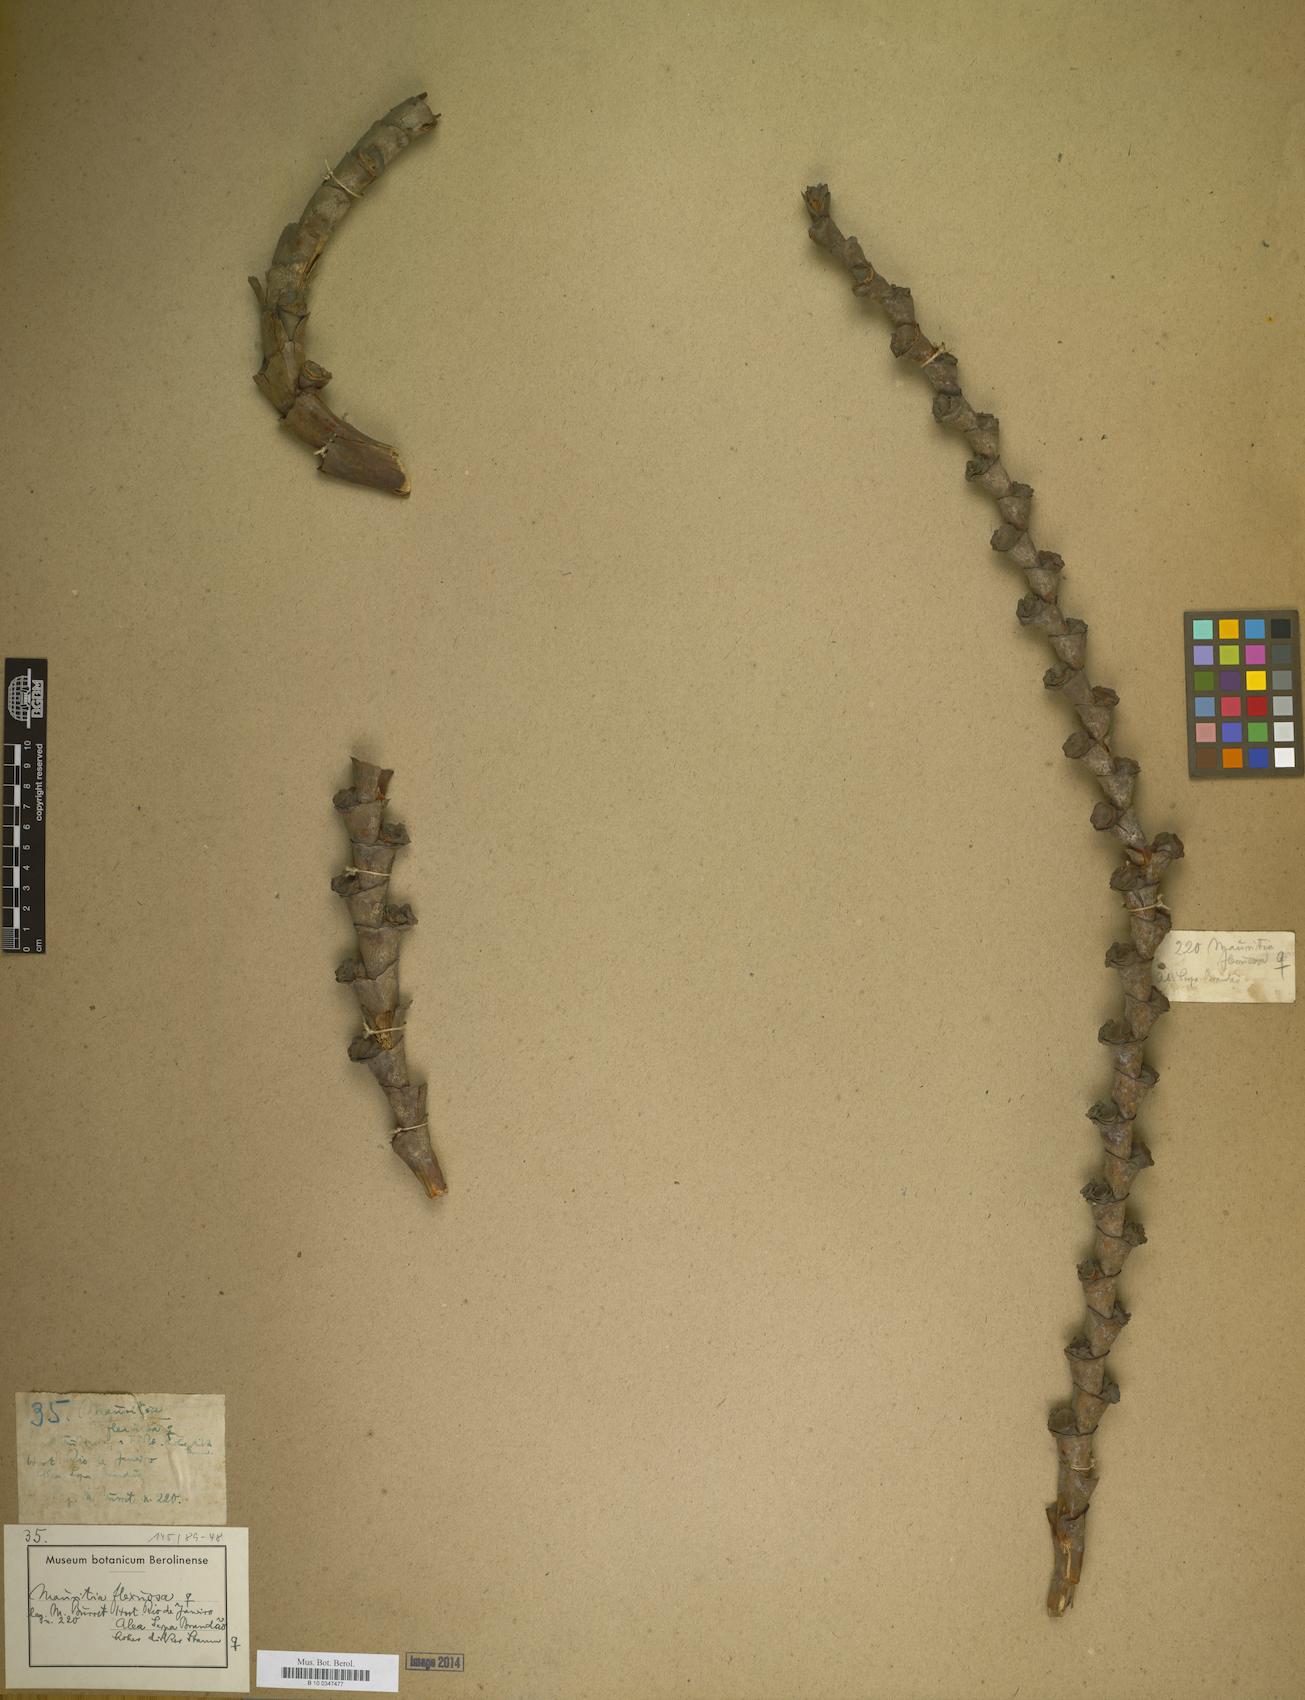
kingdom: Plantae
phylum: Tracheophyta
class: Liliopsida
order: Arecales
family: Arecaceae
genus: Mauritia
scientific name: Mauritia flexuosa
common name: Tree-of-life
